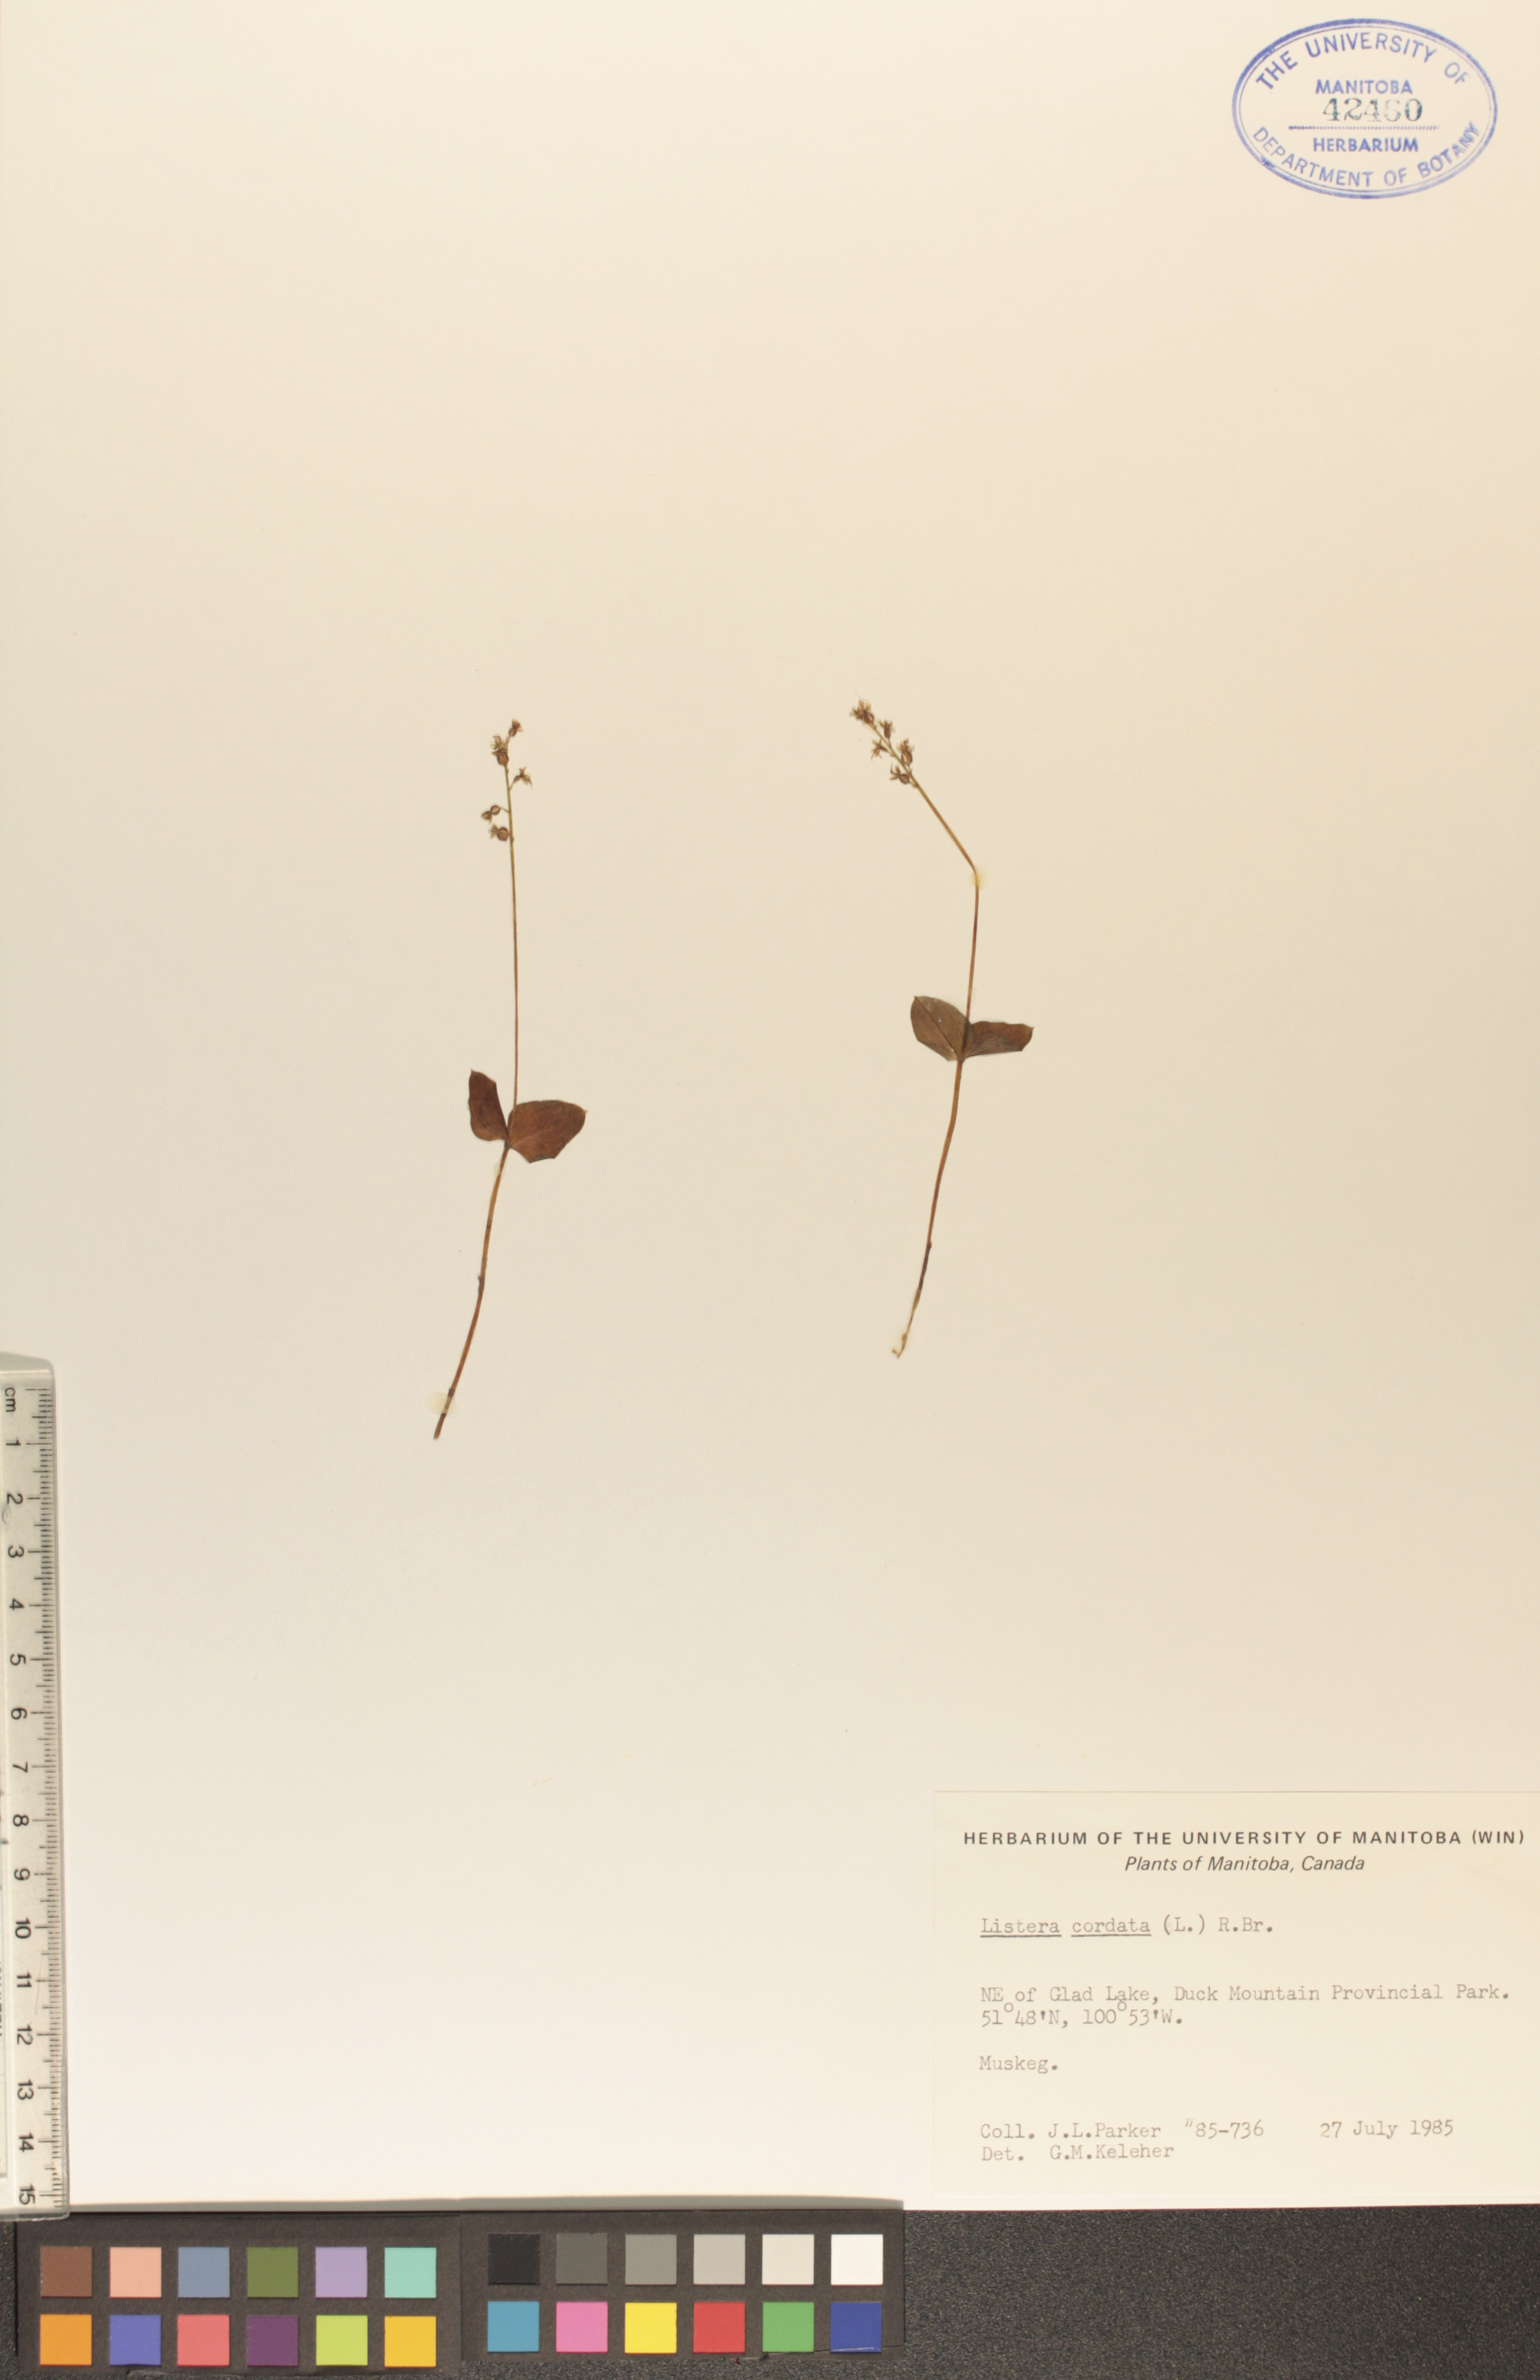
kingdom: Plantae
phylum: Tracheophyta
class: Liliopsida
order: Asparagales
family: Orchidaceae
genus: Neottia
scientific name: Neottia cordata
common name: Lesser twayblade
